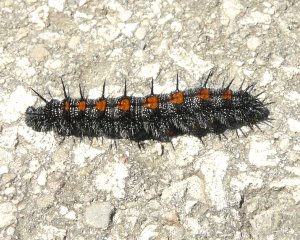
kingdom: Animalia
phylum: Arthropoda
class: Insecta
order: Lepidoptera
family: Nymphalidae
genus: Nymphalis
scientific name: Nymphalis antiopa
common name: Mourning Cloak
